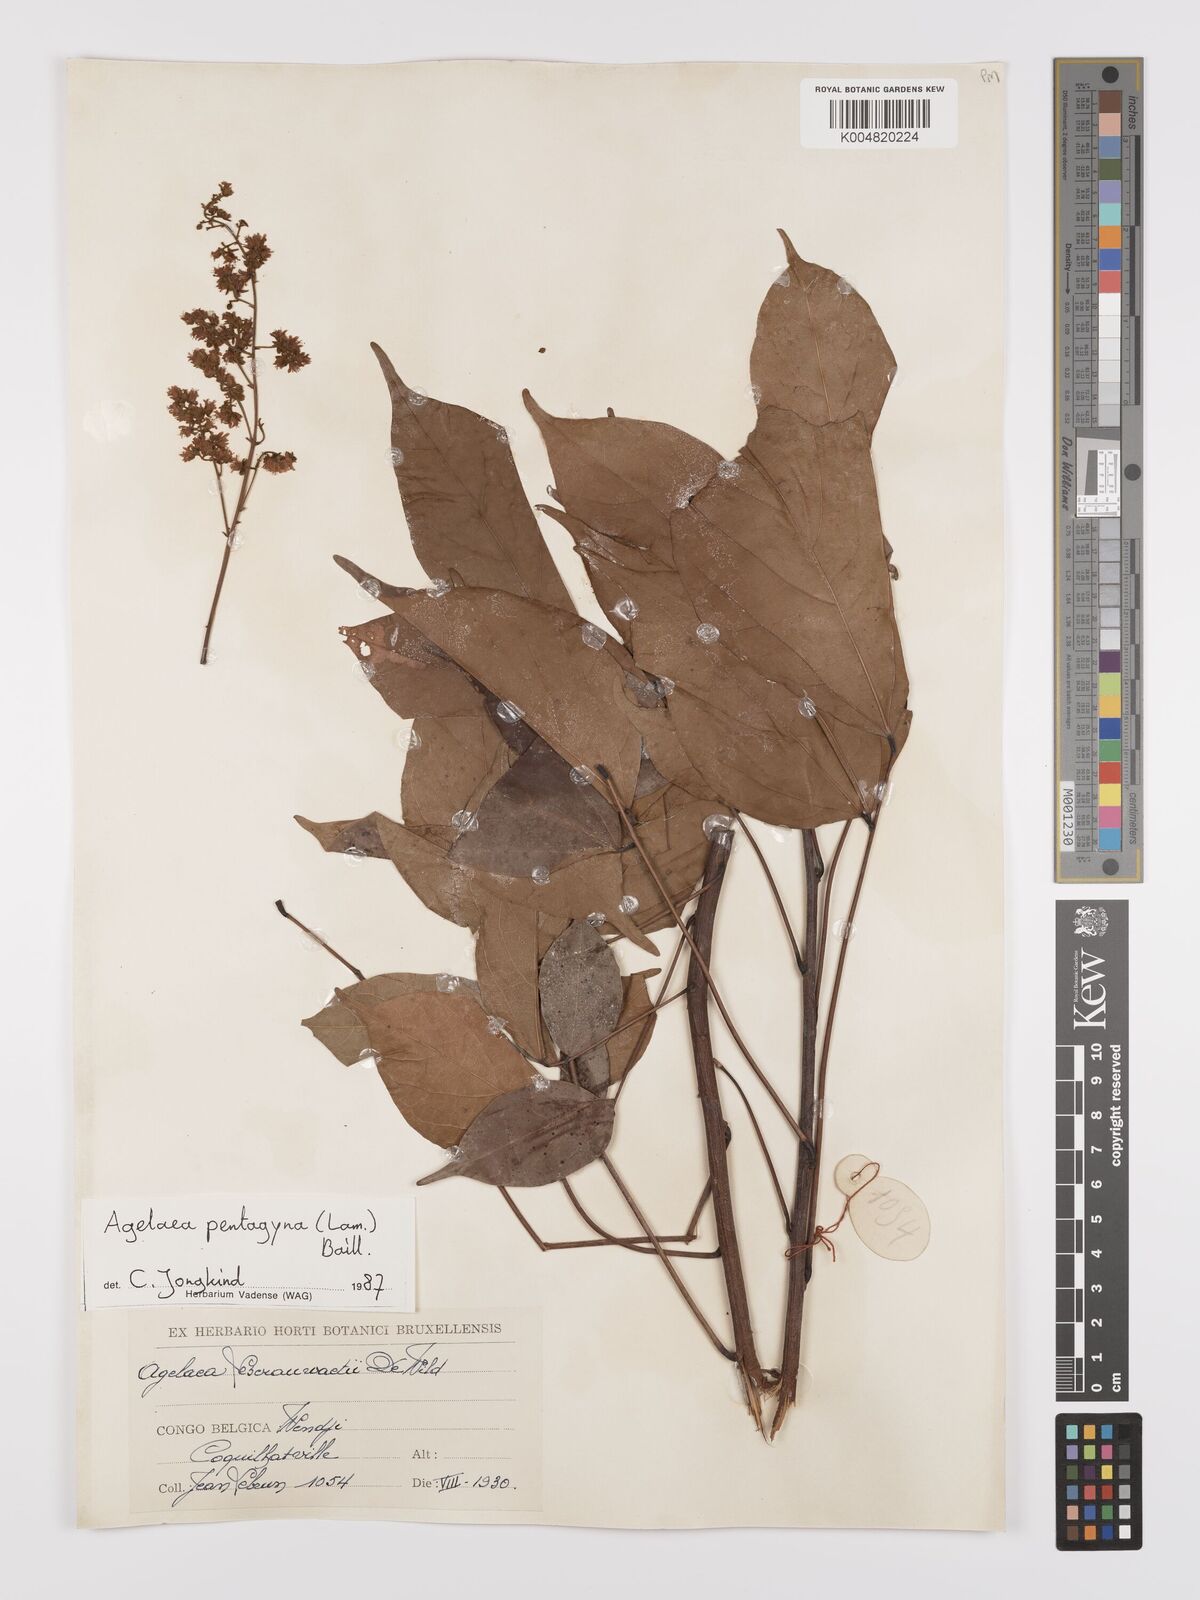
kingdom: Plantae
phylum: Tracheophyta
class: Magnoliopsida
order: Oxalidales
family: Connaraceae
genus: Agelaea
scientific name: Agelaea pentagyna
